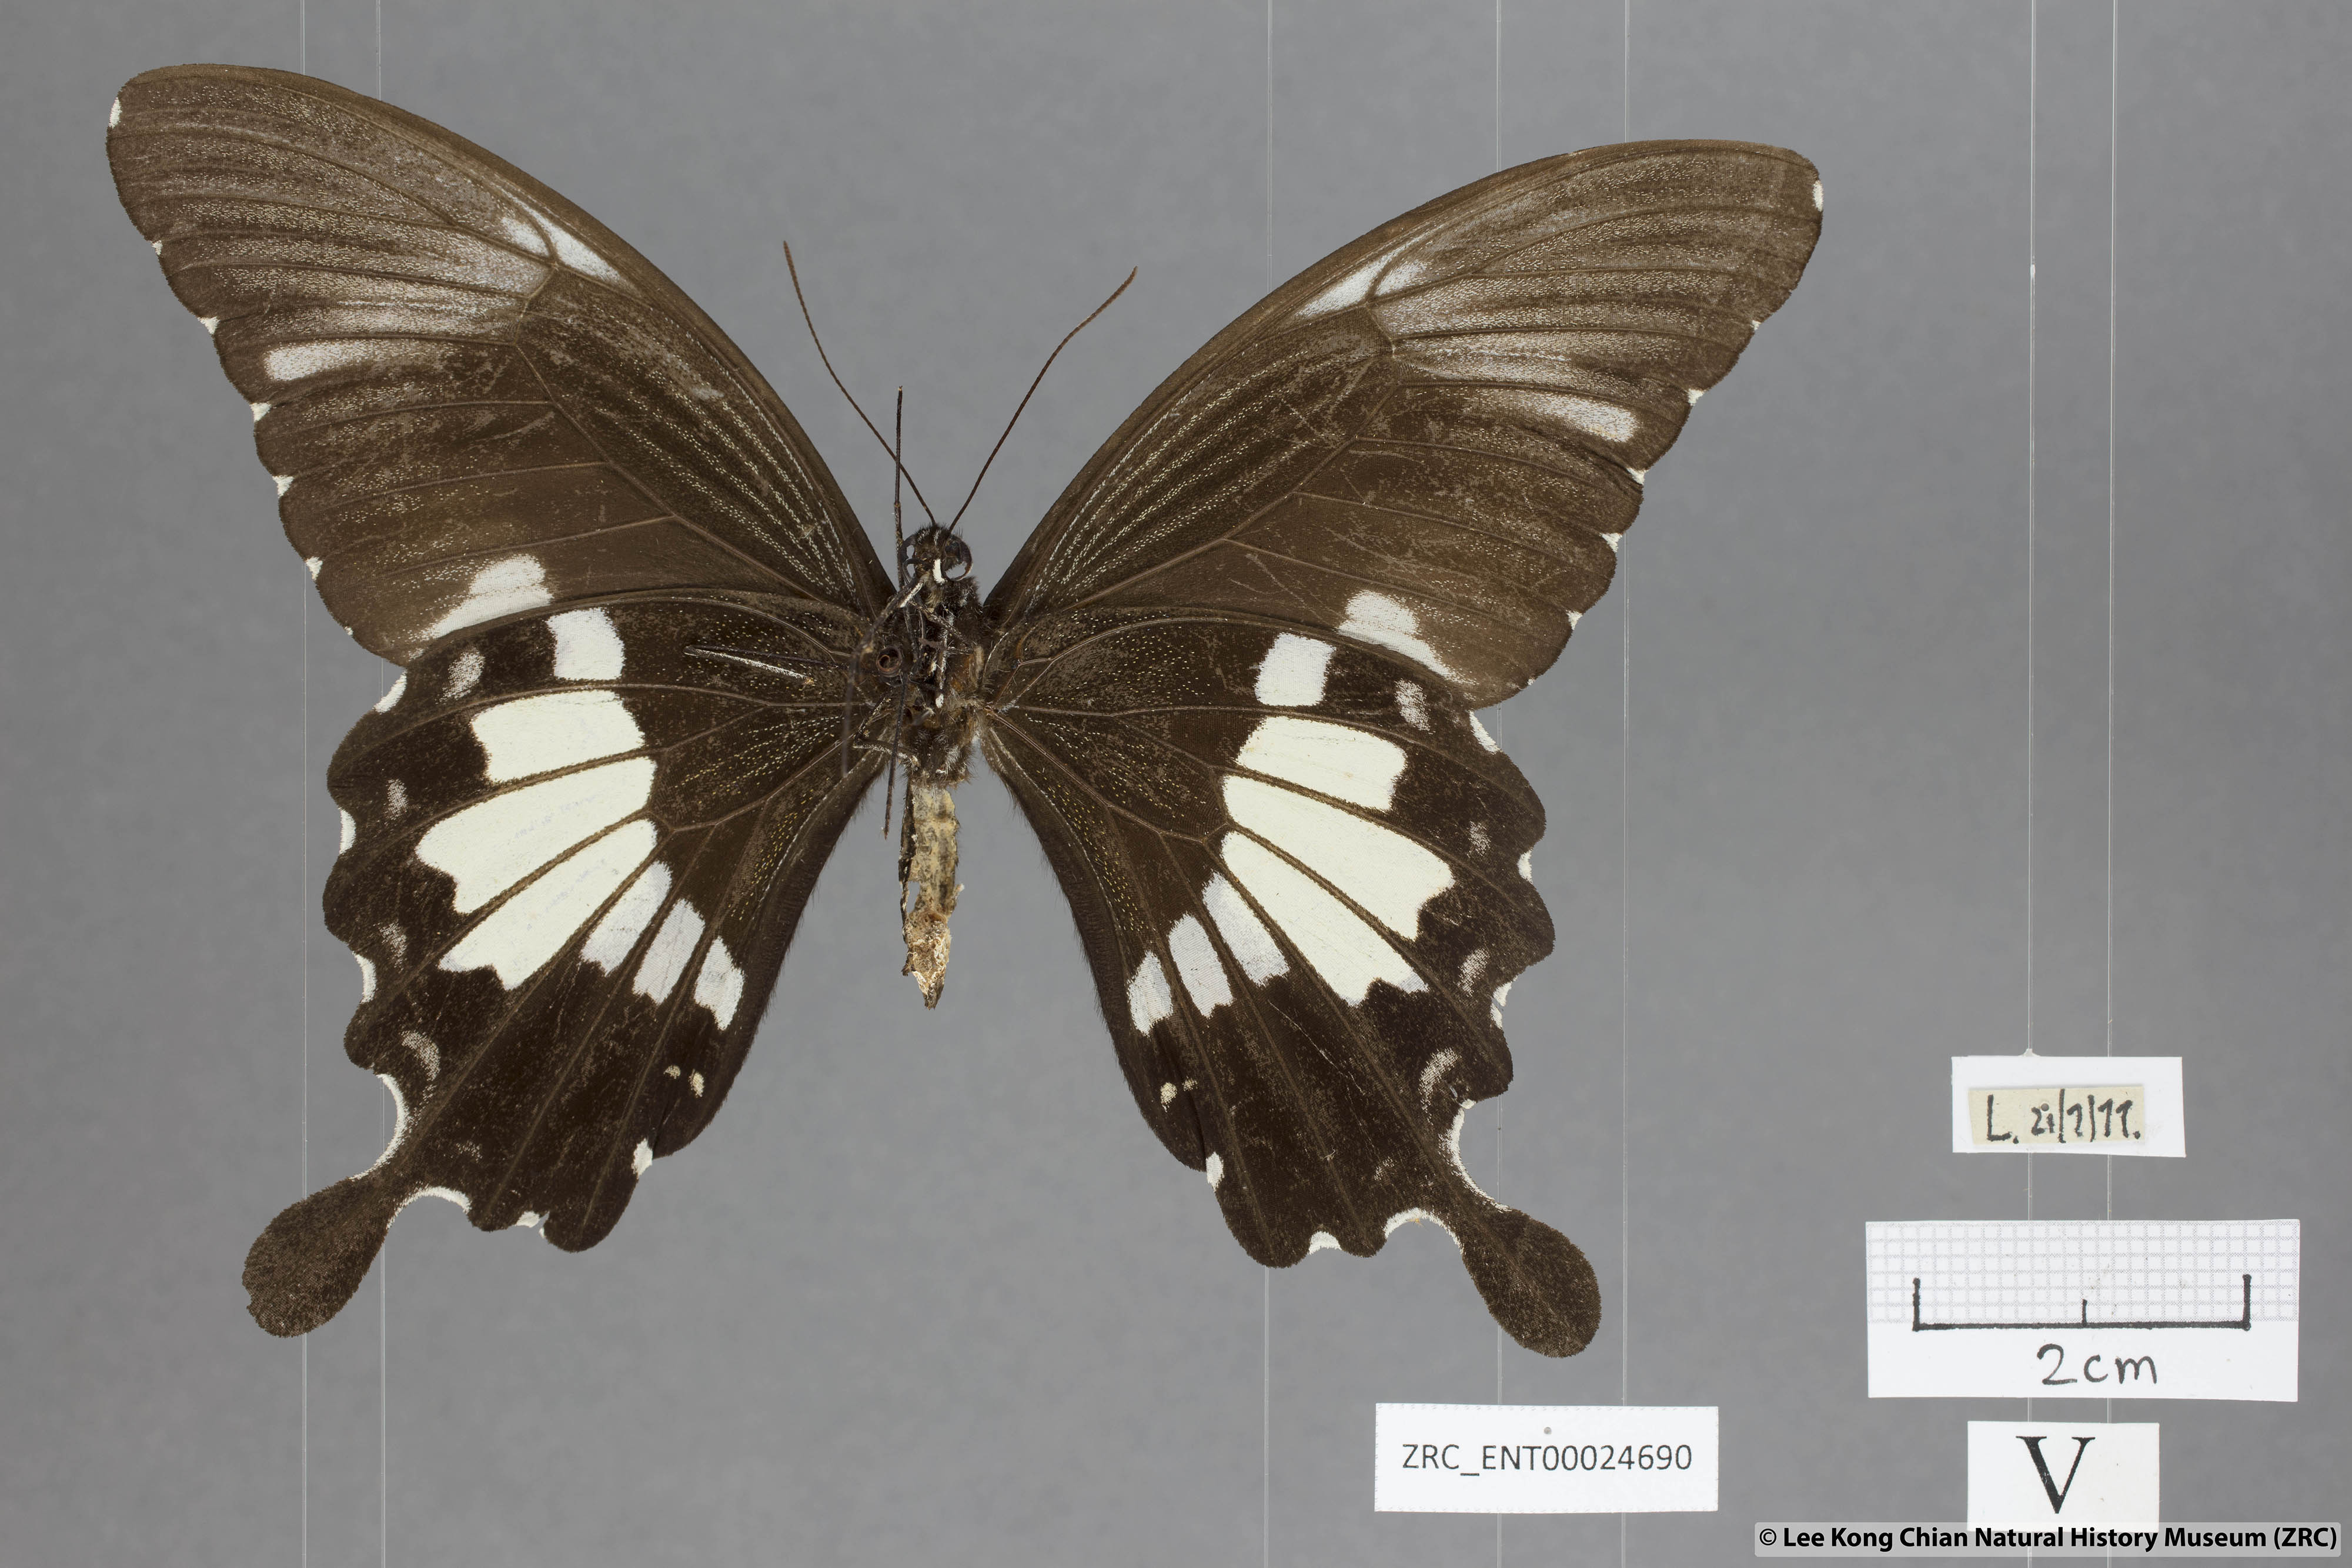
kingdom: Animalia
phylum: Arthropoda
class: Insecta
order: Lepidoptera
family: Papilionidae
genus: Papilio
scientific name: Papilio nephelus
